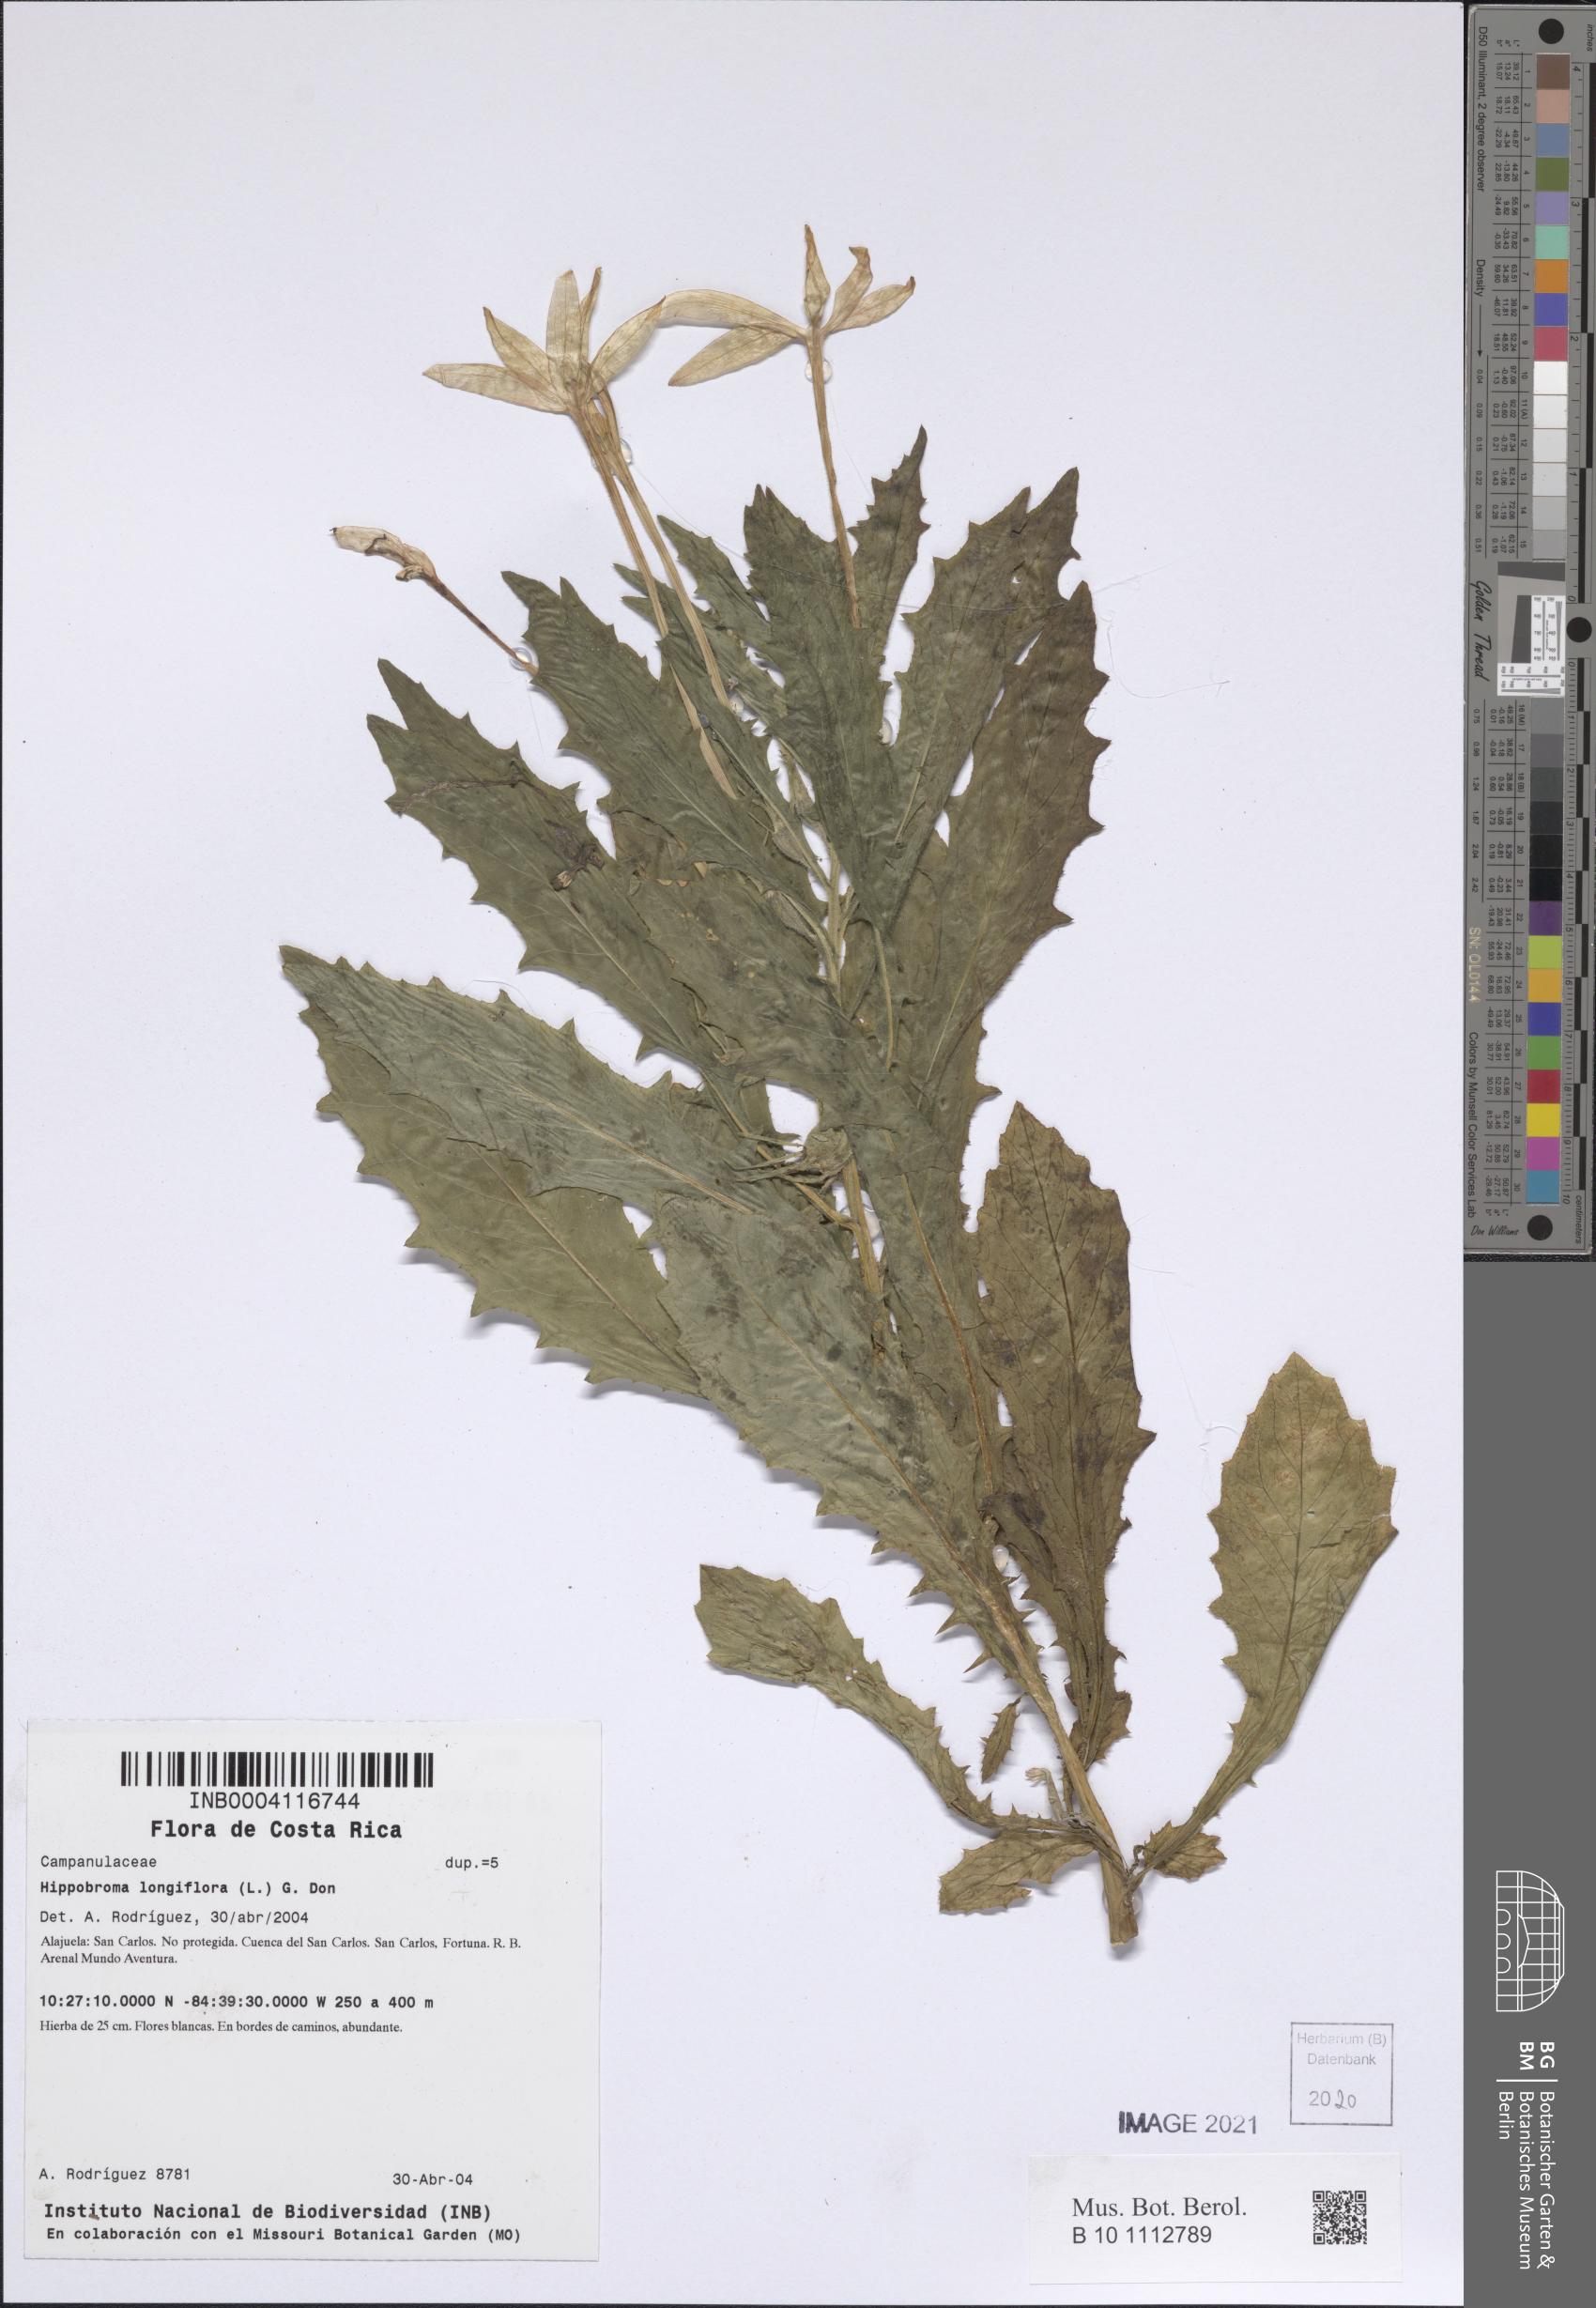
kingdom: Plantae
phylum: Tracheophyta
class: Magnoliopsida
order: Asterales
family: Campanulaceae
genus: Hippobroma
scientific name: Hippobroma longiflora
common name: Madamfate
